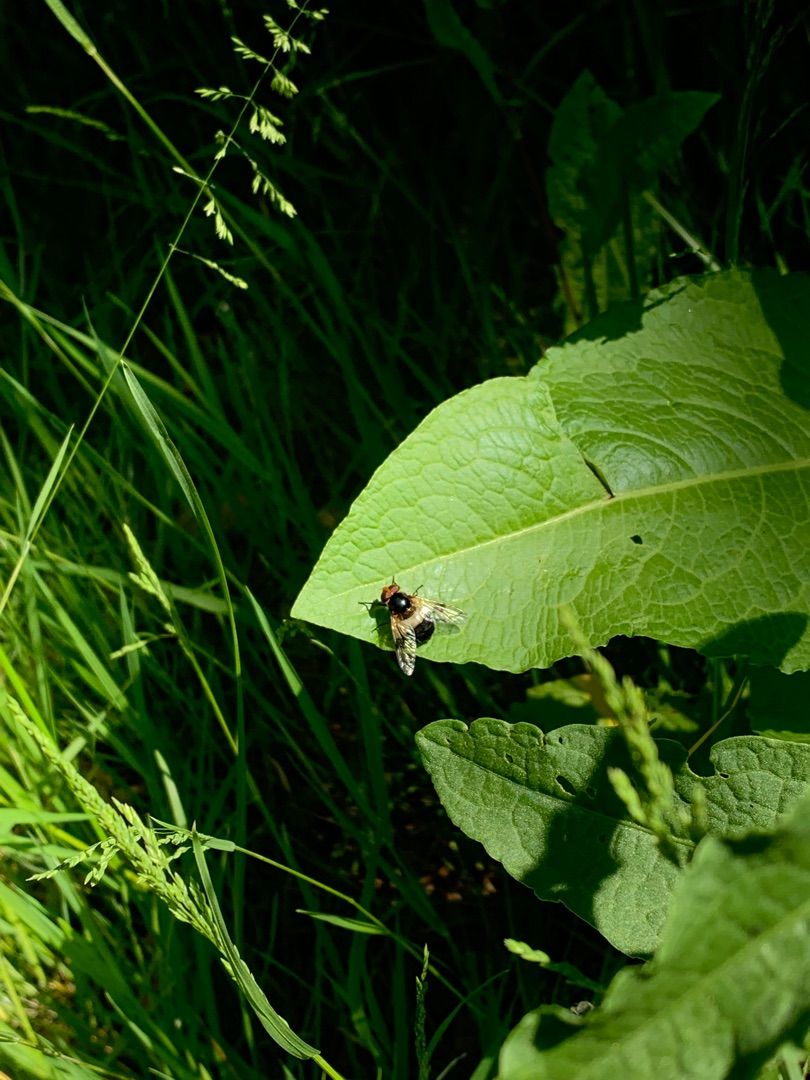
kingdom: Animalia
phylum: Arthropoda
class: Insecta
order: Diptera
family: Syrphidae
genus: Volucella
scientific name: Volucella pellucens
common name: Hvidbåndet humlesvirreflue
